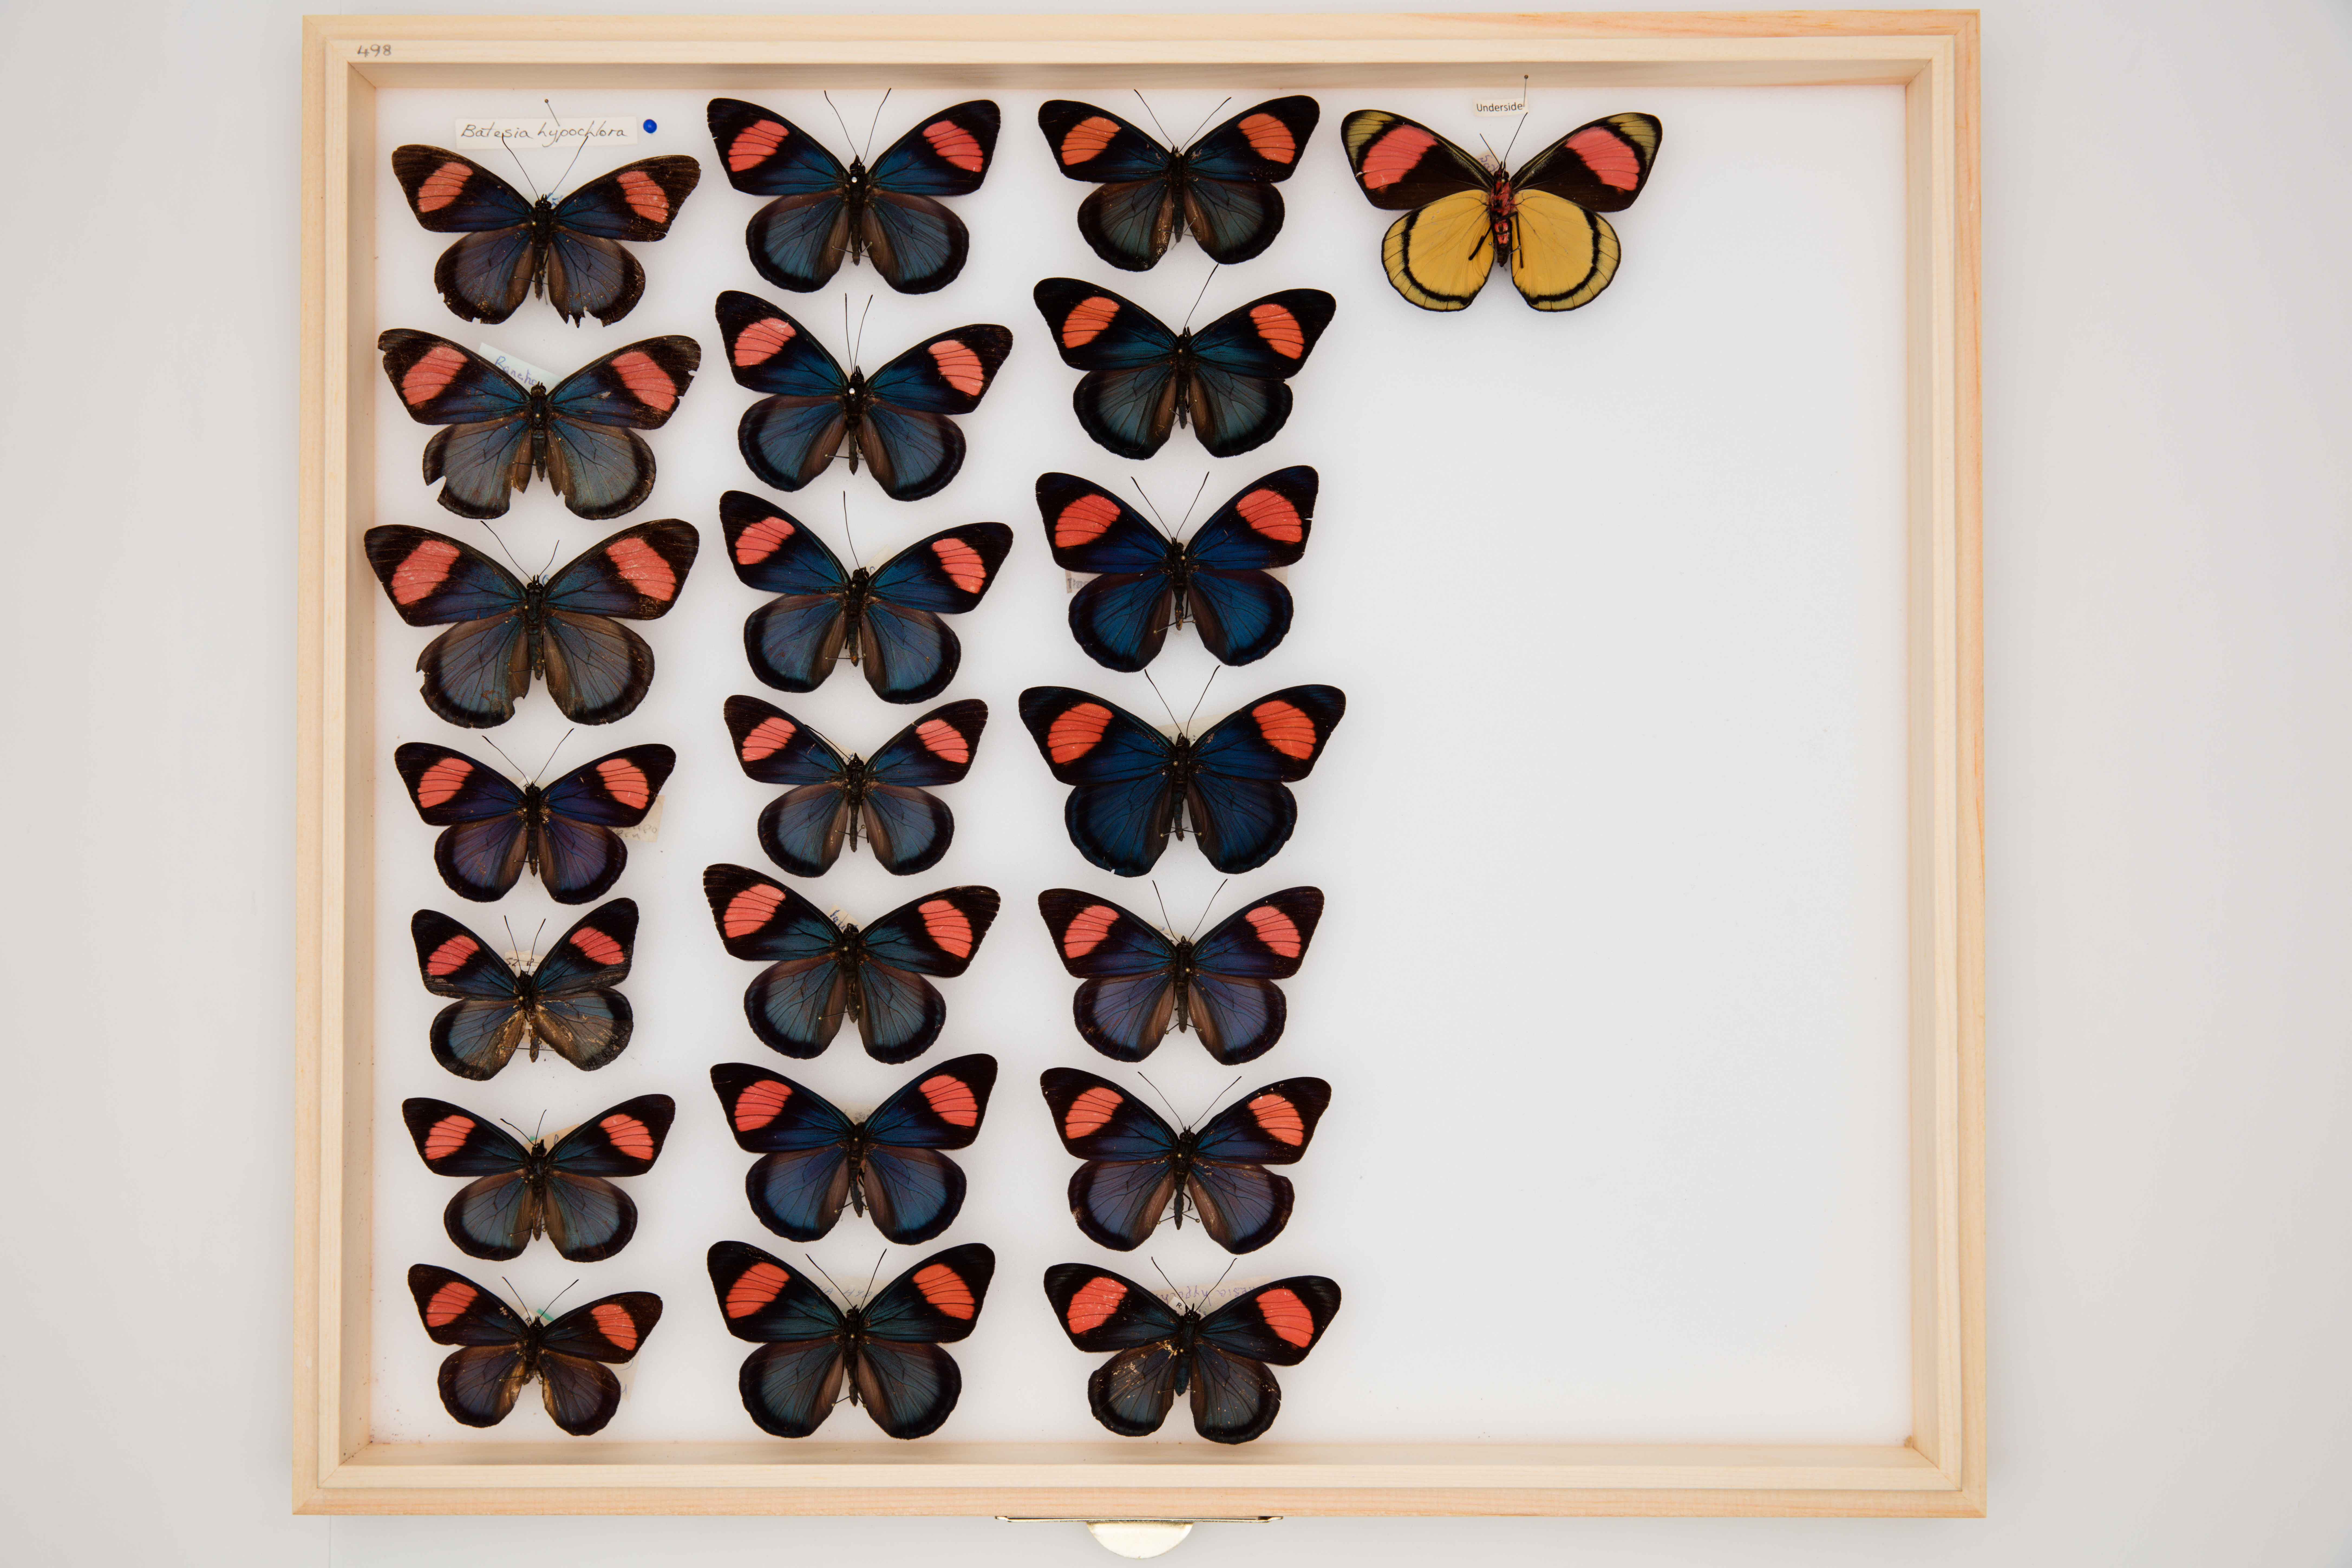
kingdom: Animalia
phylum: Arthropoda
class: Insecta
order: Lepidoptera
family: Nymphalidae
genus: Batesia
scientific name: Batesia hypochlora
